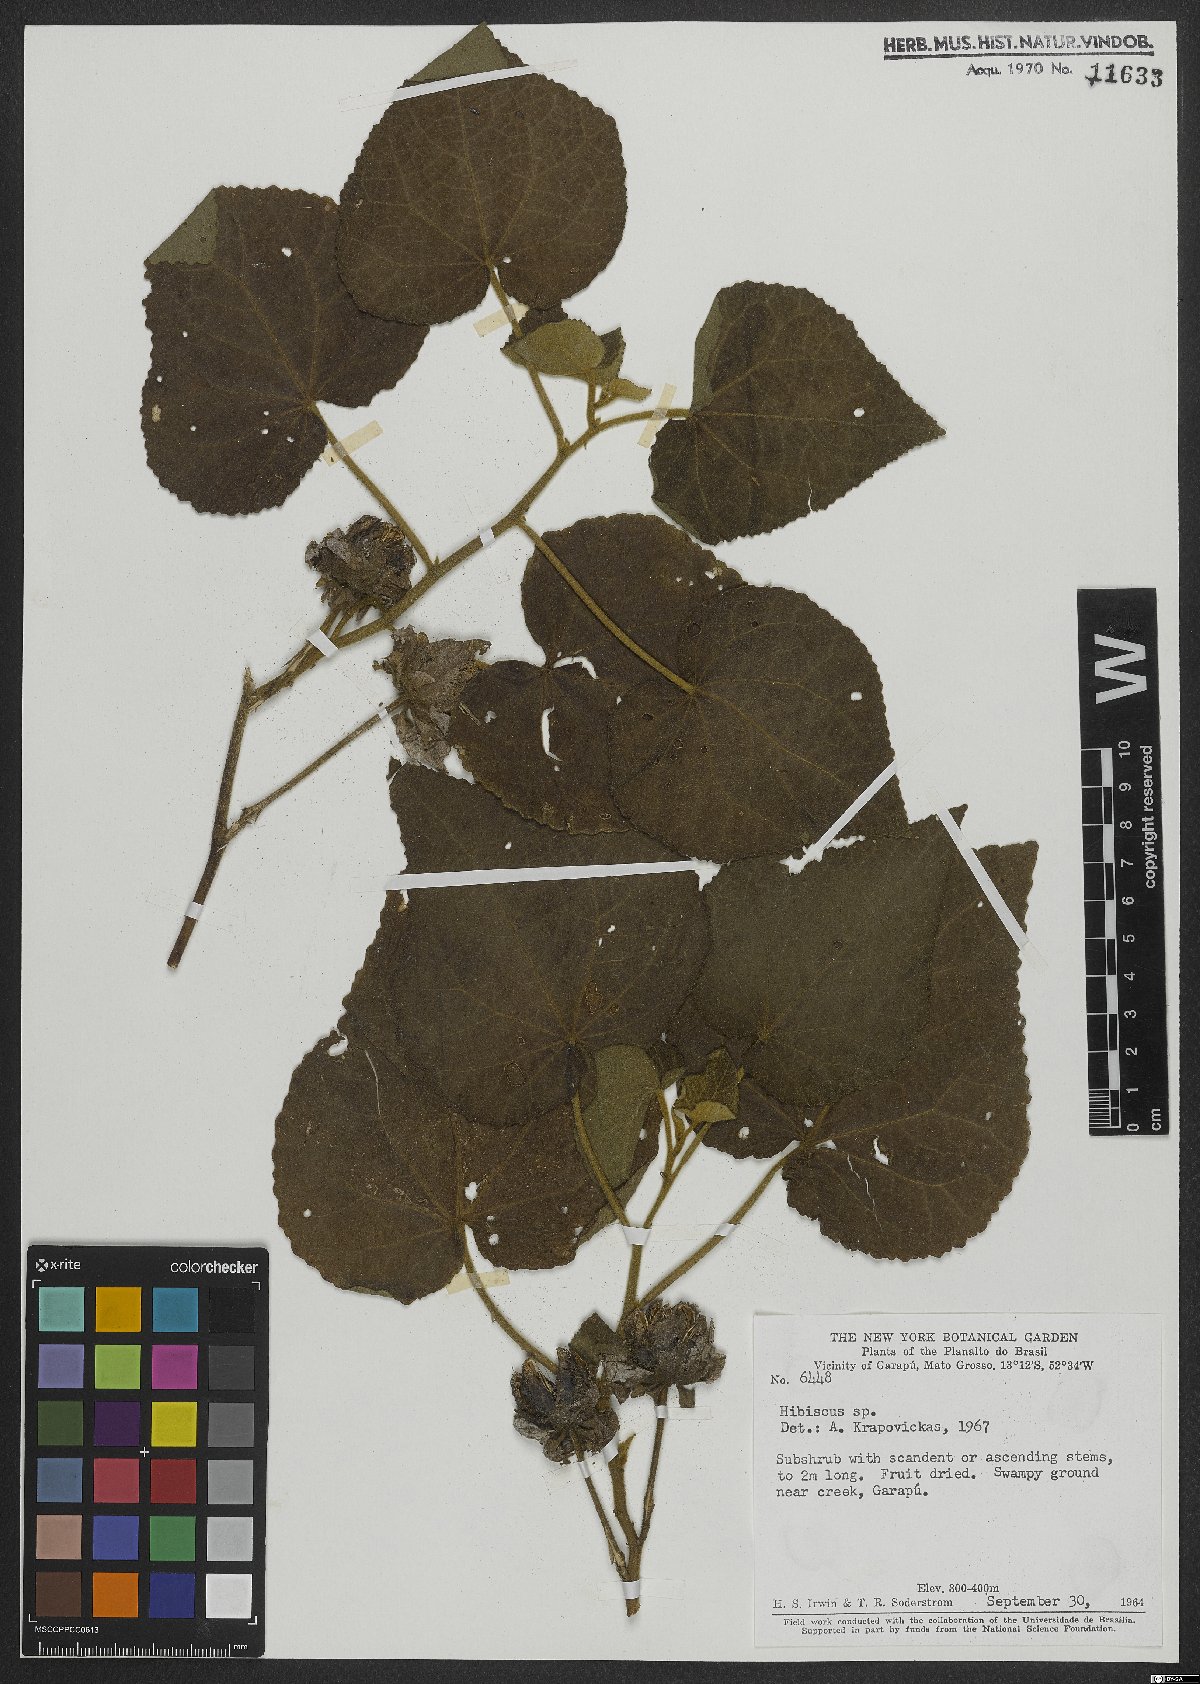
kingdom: Plantae
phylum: Tracheophyta
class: Magnoliopsida
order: Malvales
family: Malvaceae
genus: Hibiscus
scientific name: Hibiscus
